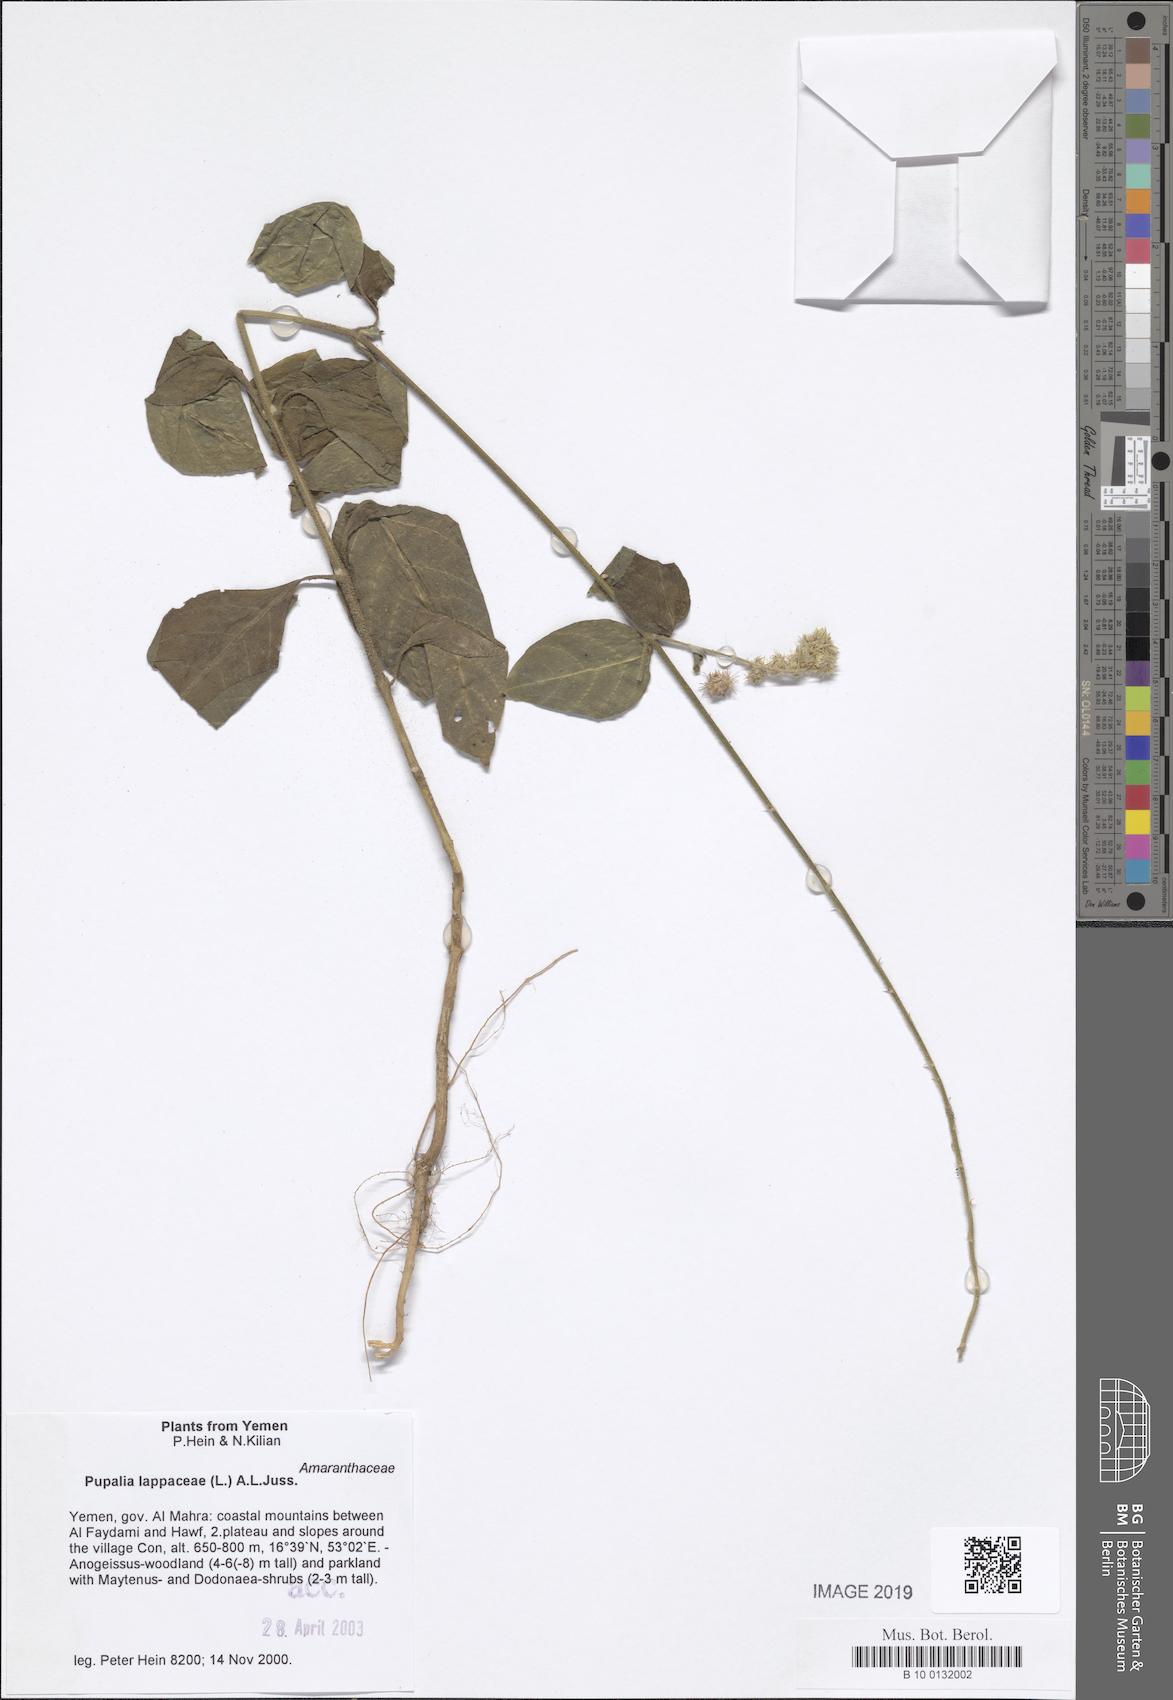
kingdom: Plantae
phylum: Tracheophyta
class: Magnoliopsida
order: Caryophyllales
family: Amaranthaceae
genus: Pupalia
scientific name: Pupalia lappacea
